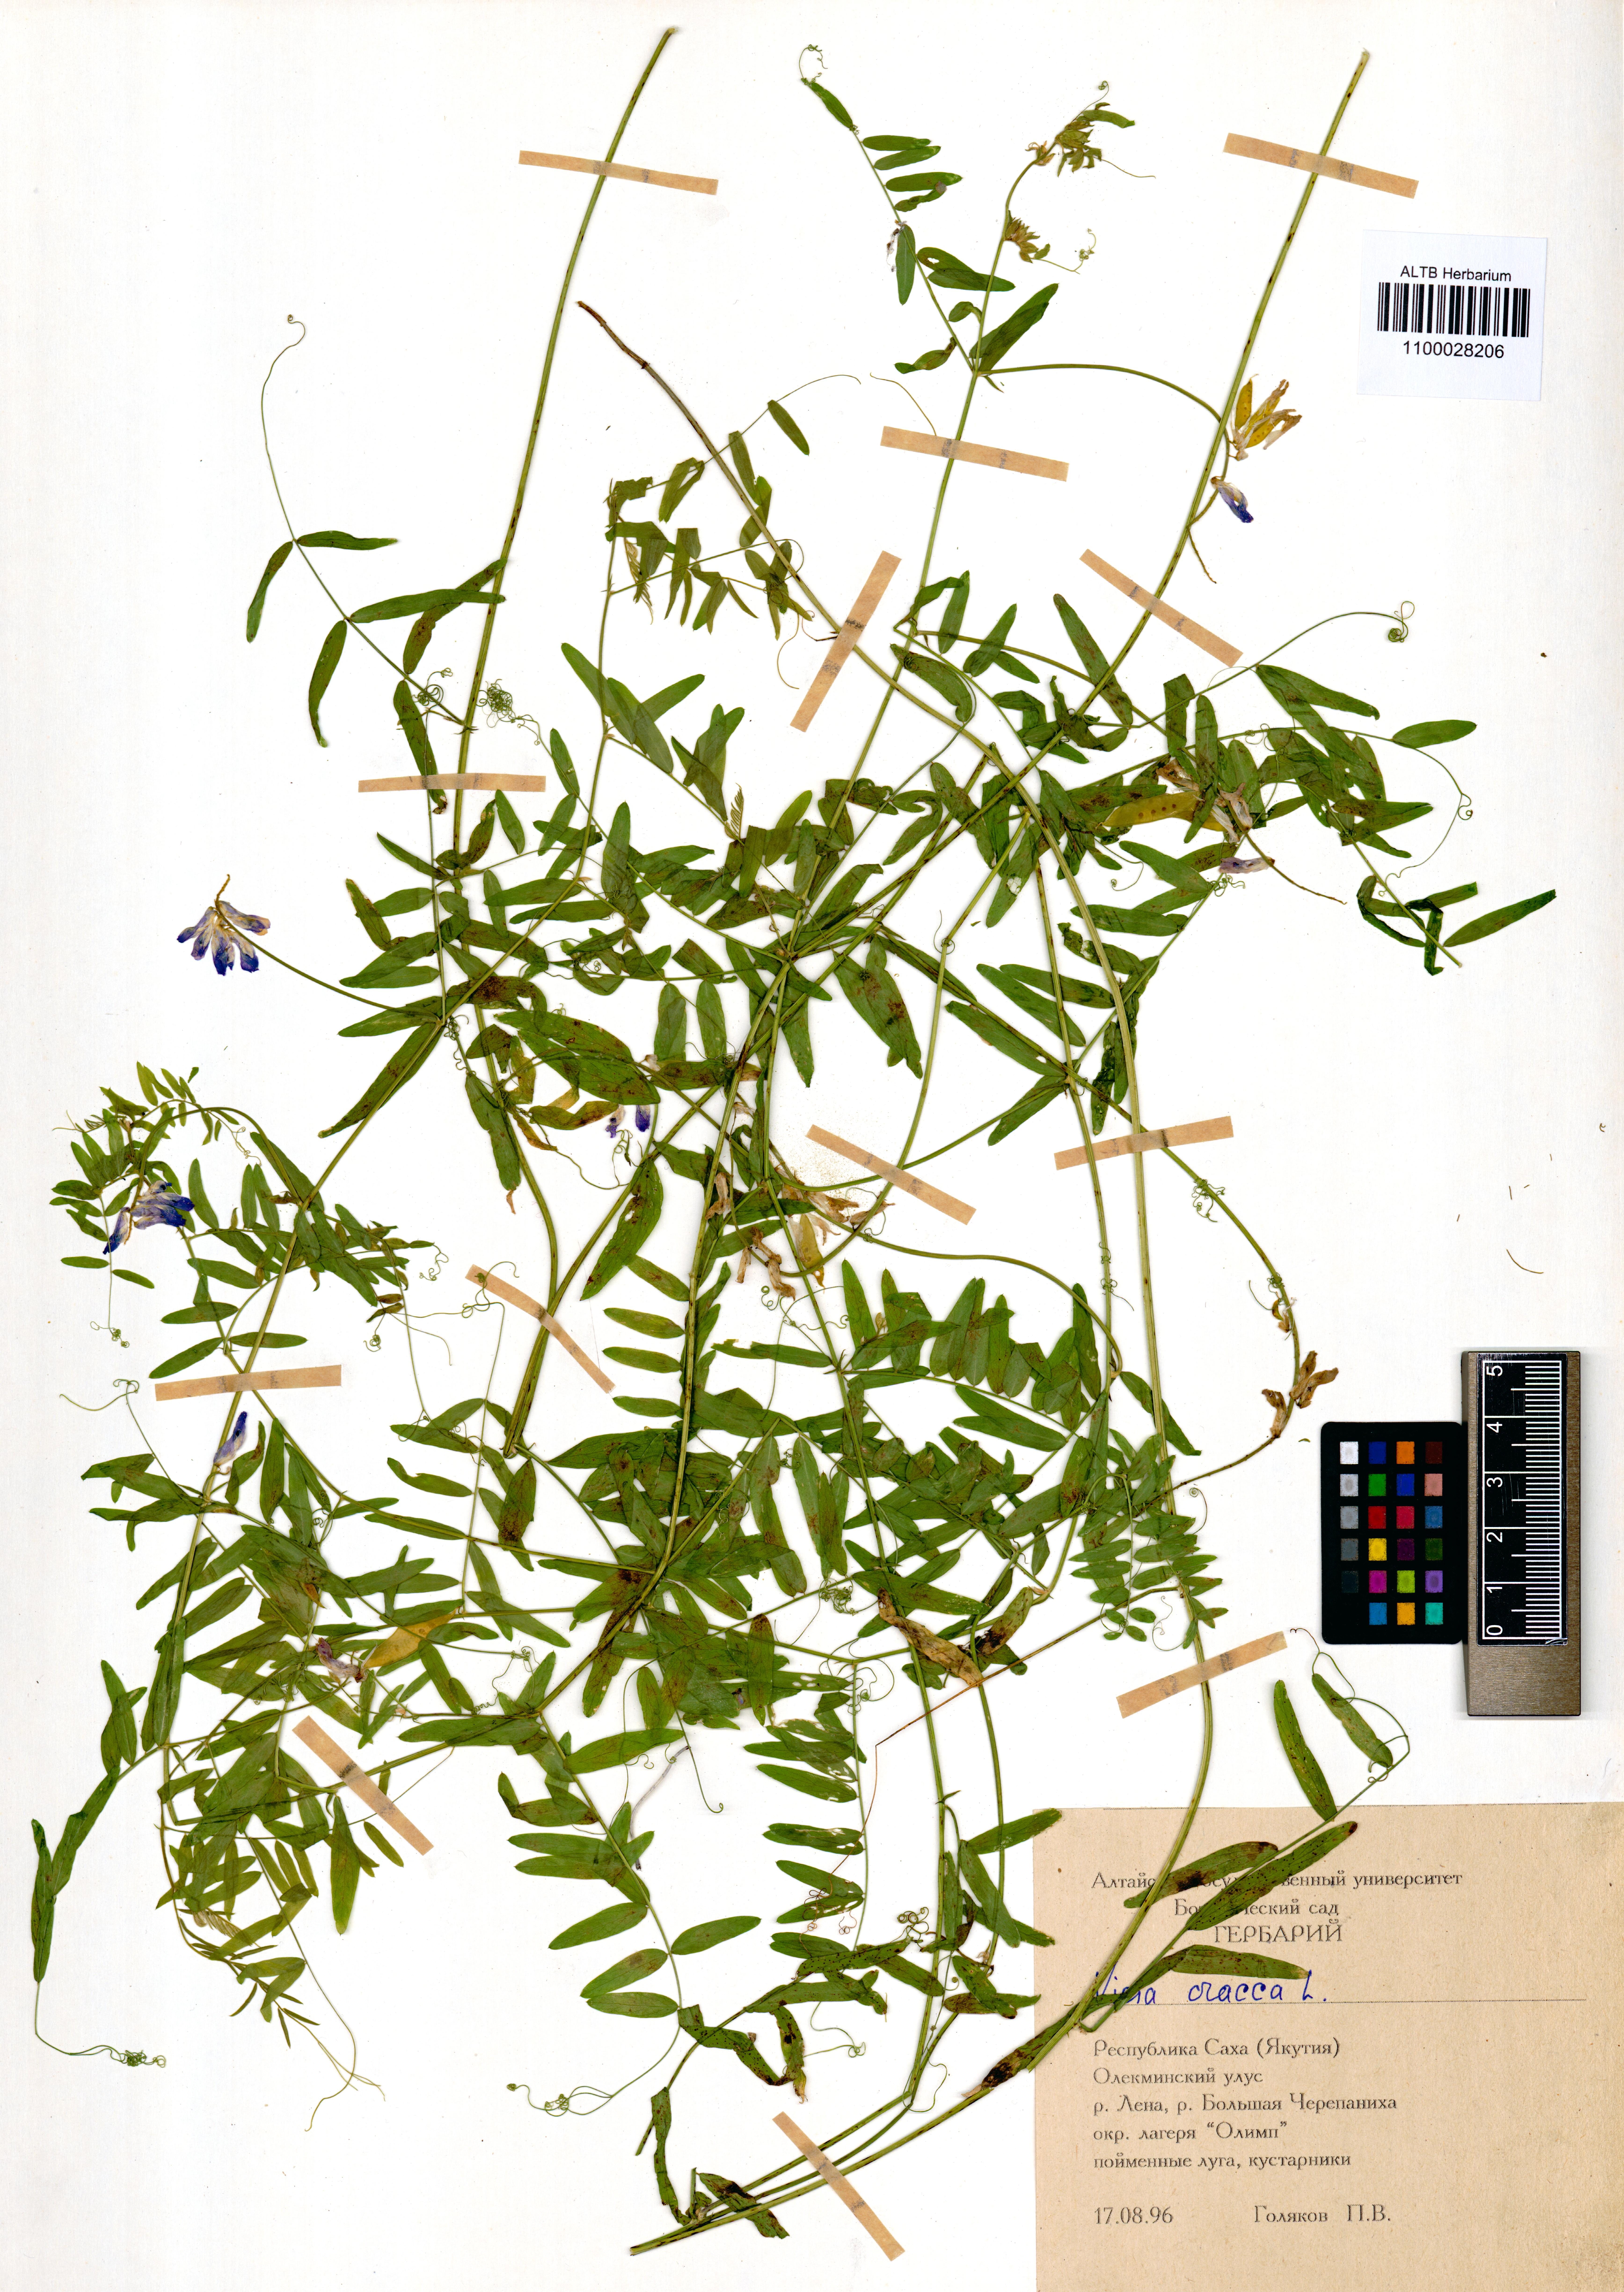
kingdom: Plantae
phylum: Tracheophyta
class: Magnoliopsida
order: Fabales
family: Fabaceae
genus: Vicia
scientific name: Vicia cracca
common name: Bird vetch
